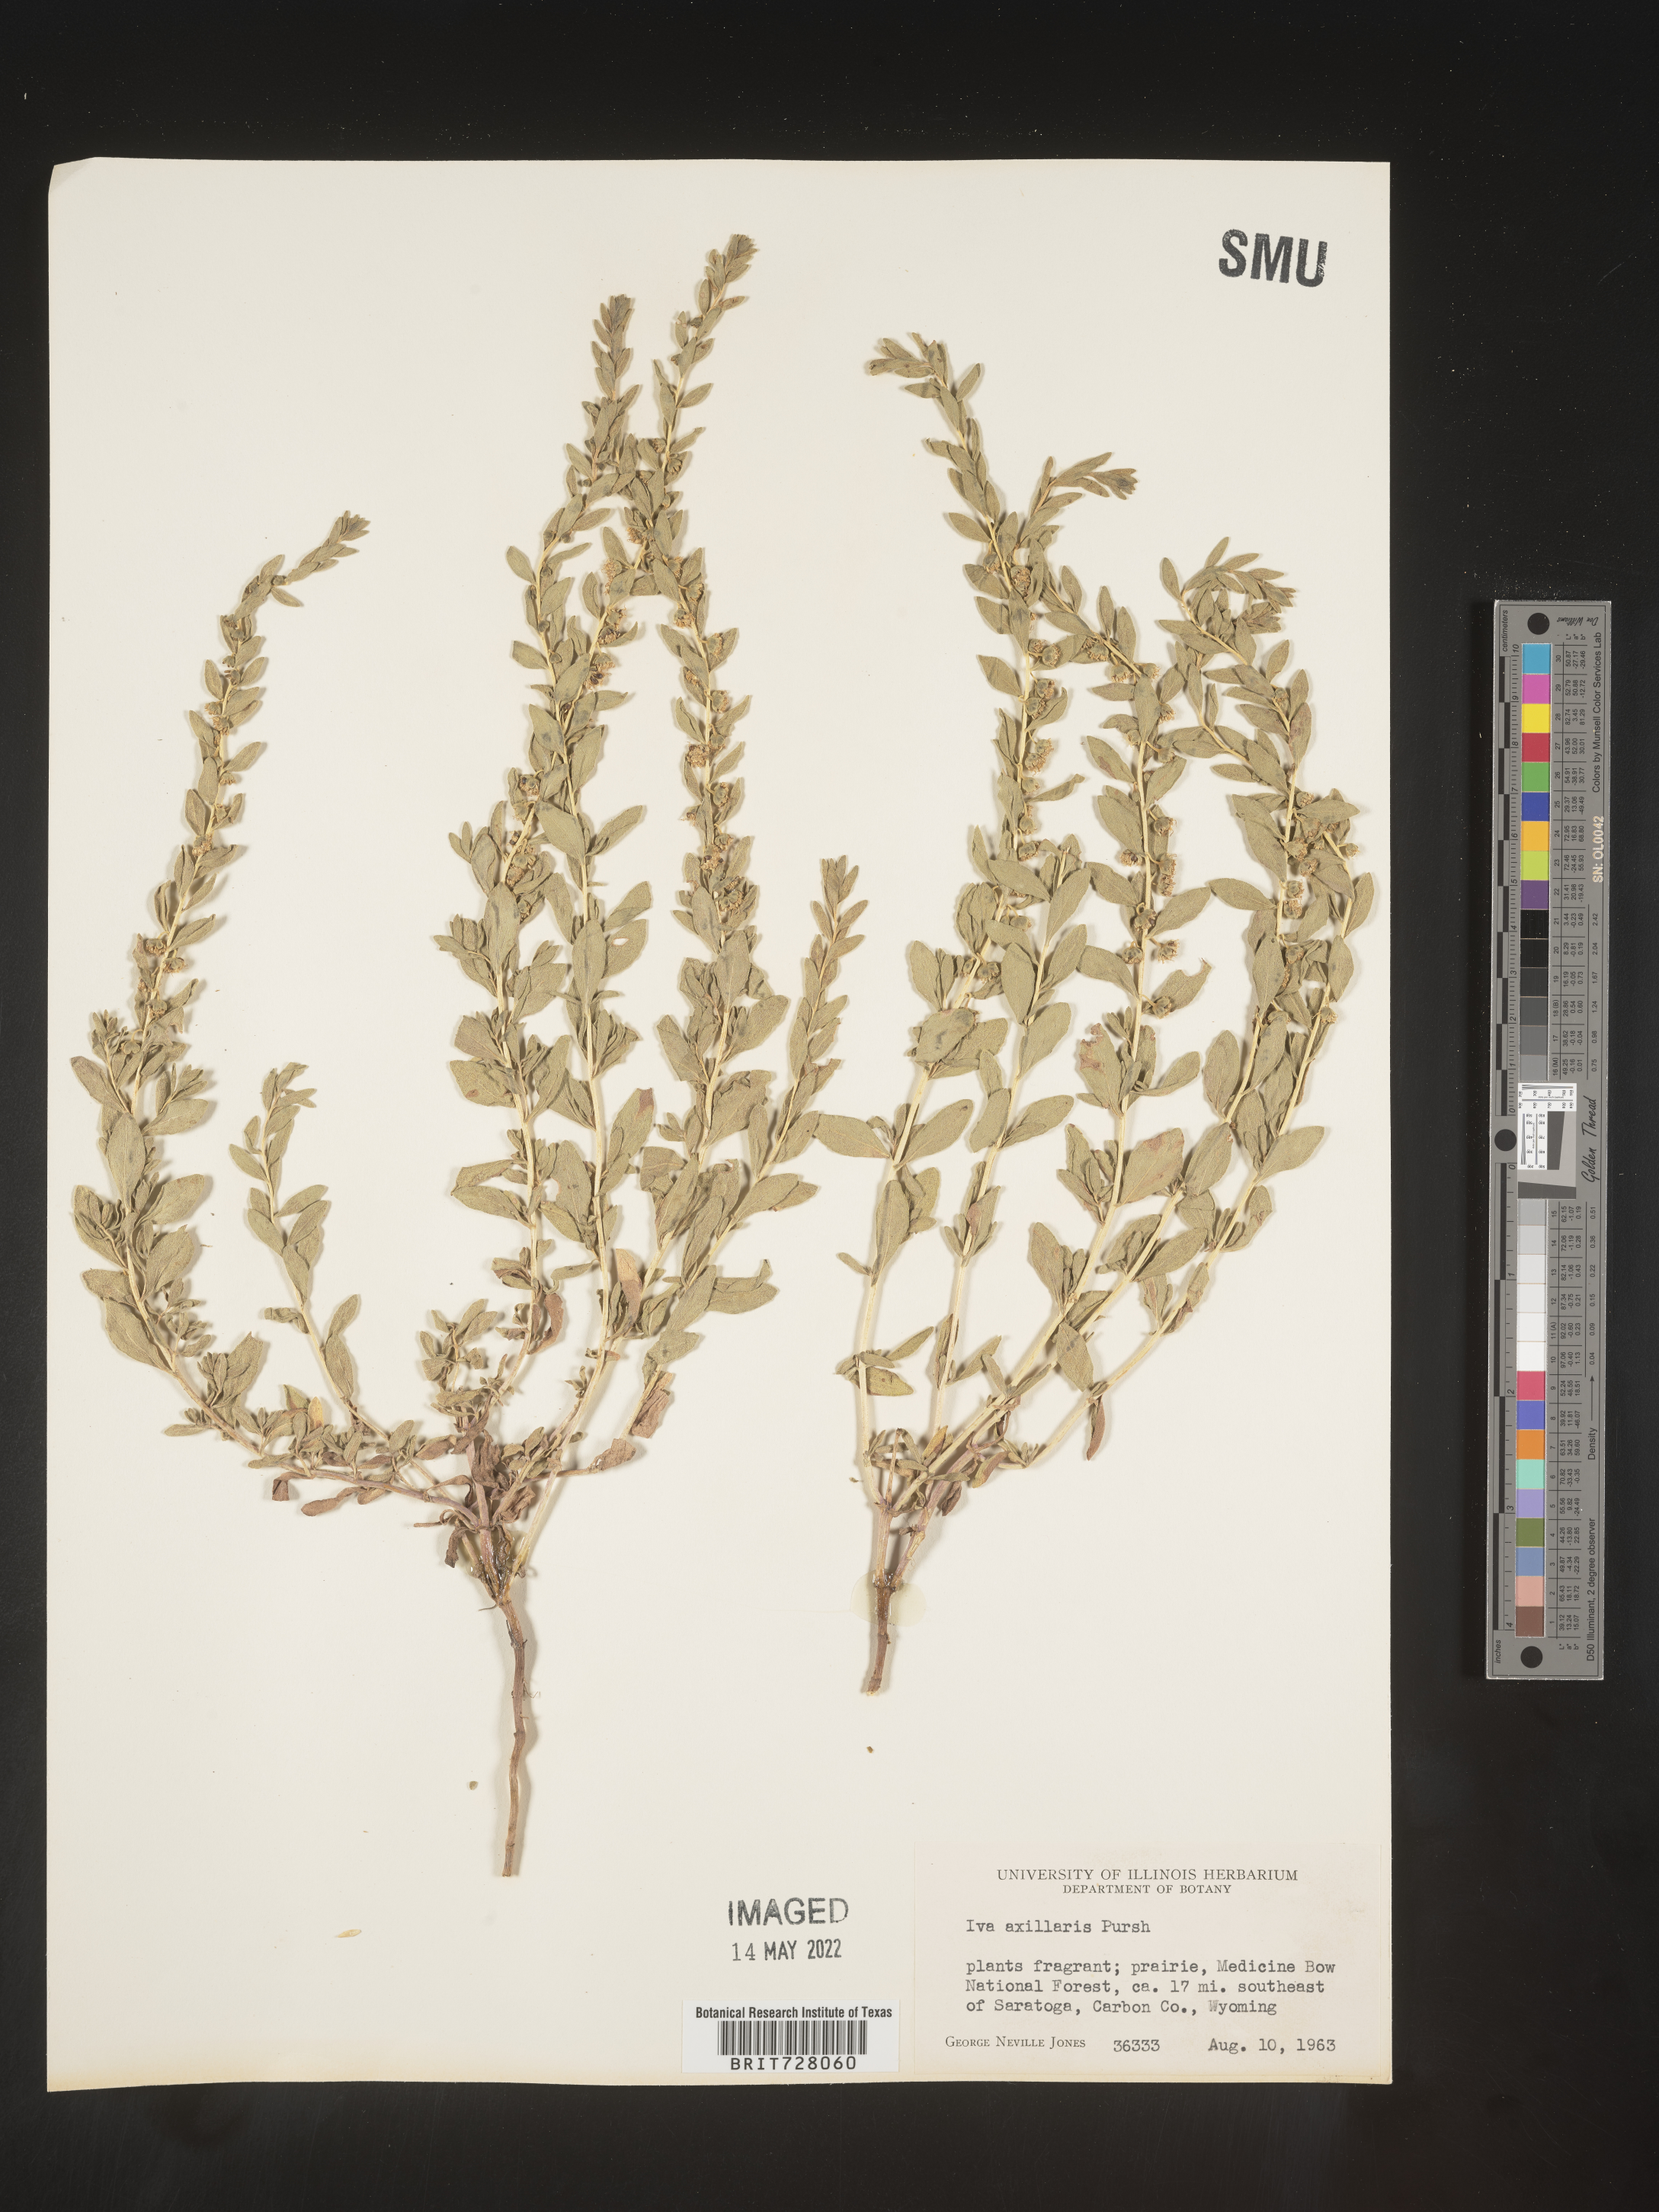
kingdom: Plantae
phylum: Tracheophyta
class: Magnoliopsida
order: Asterales
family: Asteraceae
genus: Iva
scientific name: Iva axillaris
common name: Poverty sumpweed
